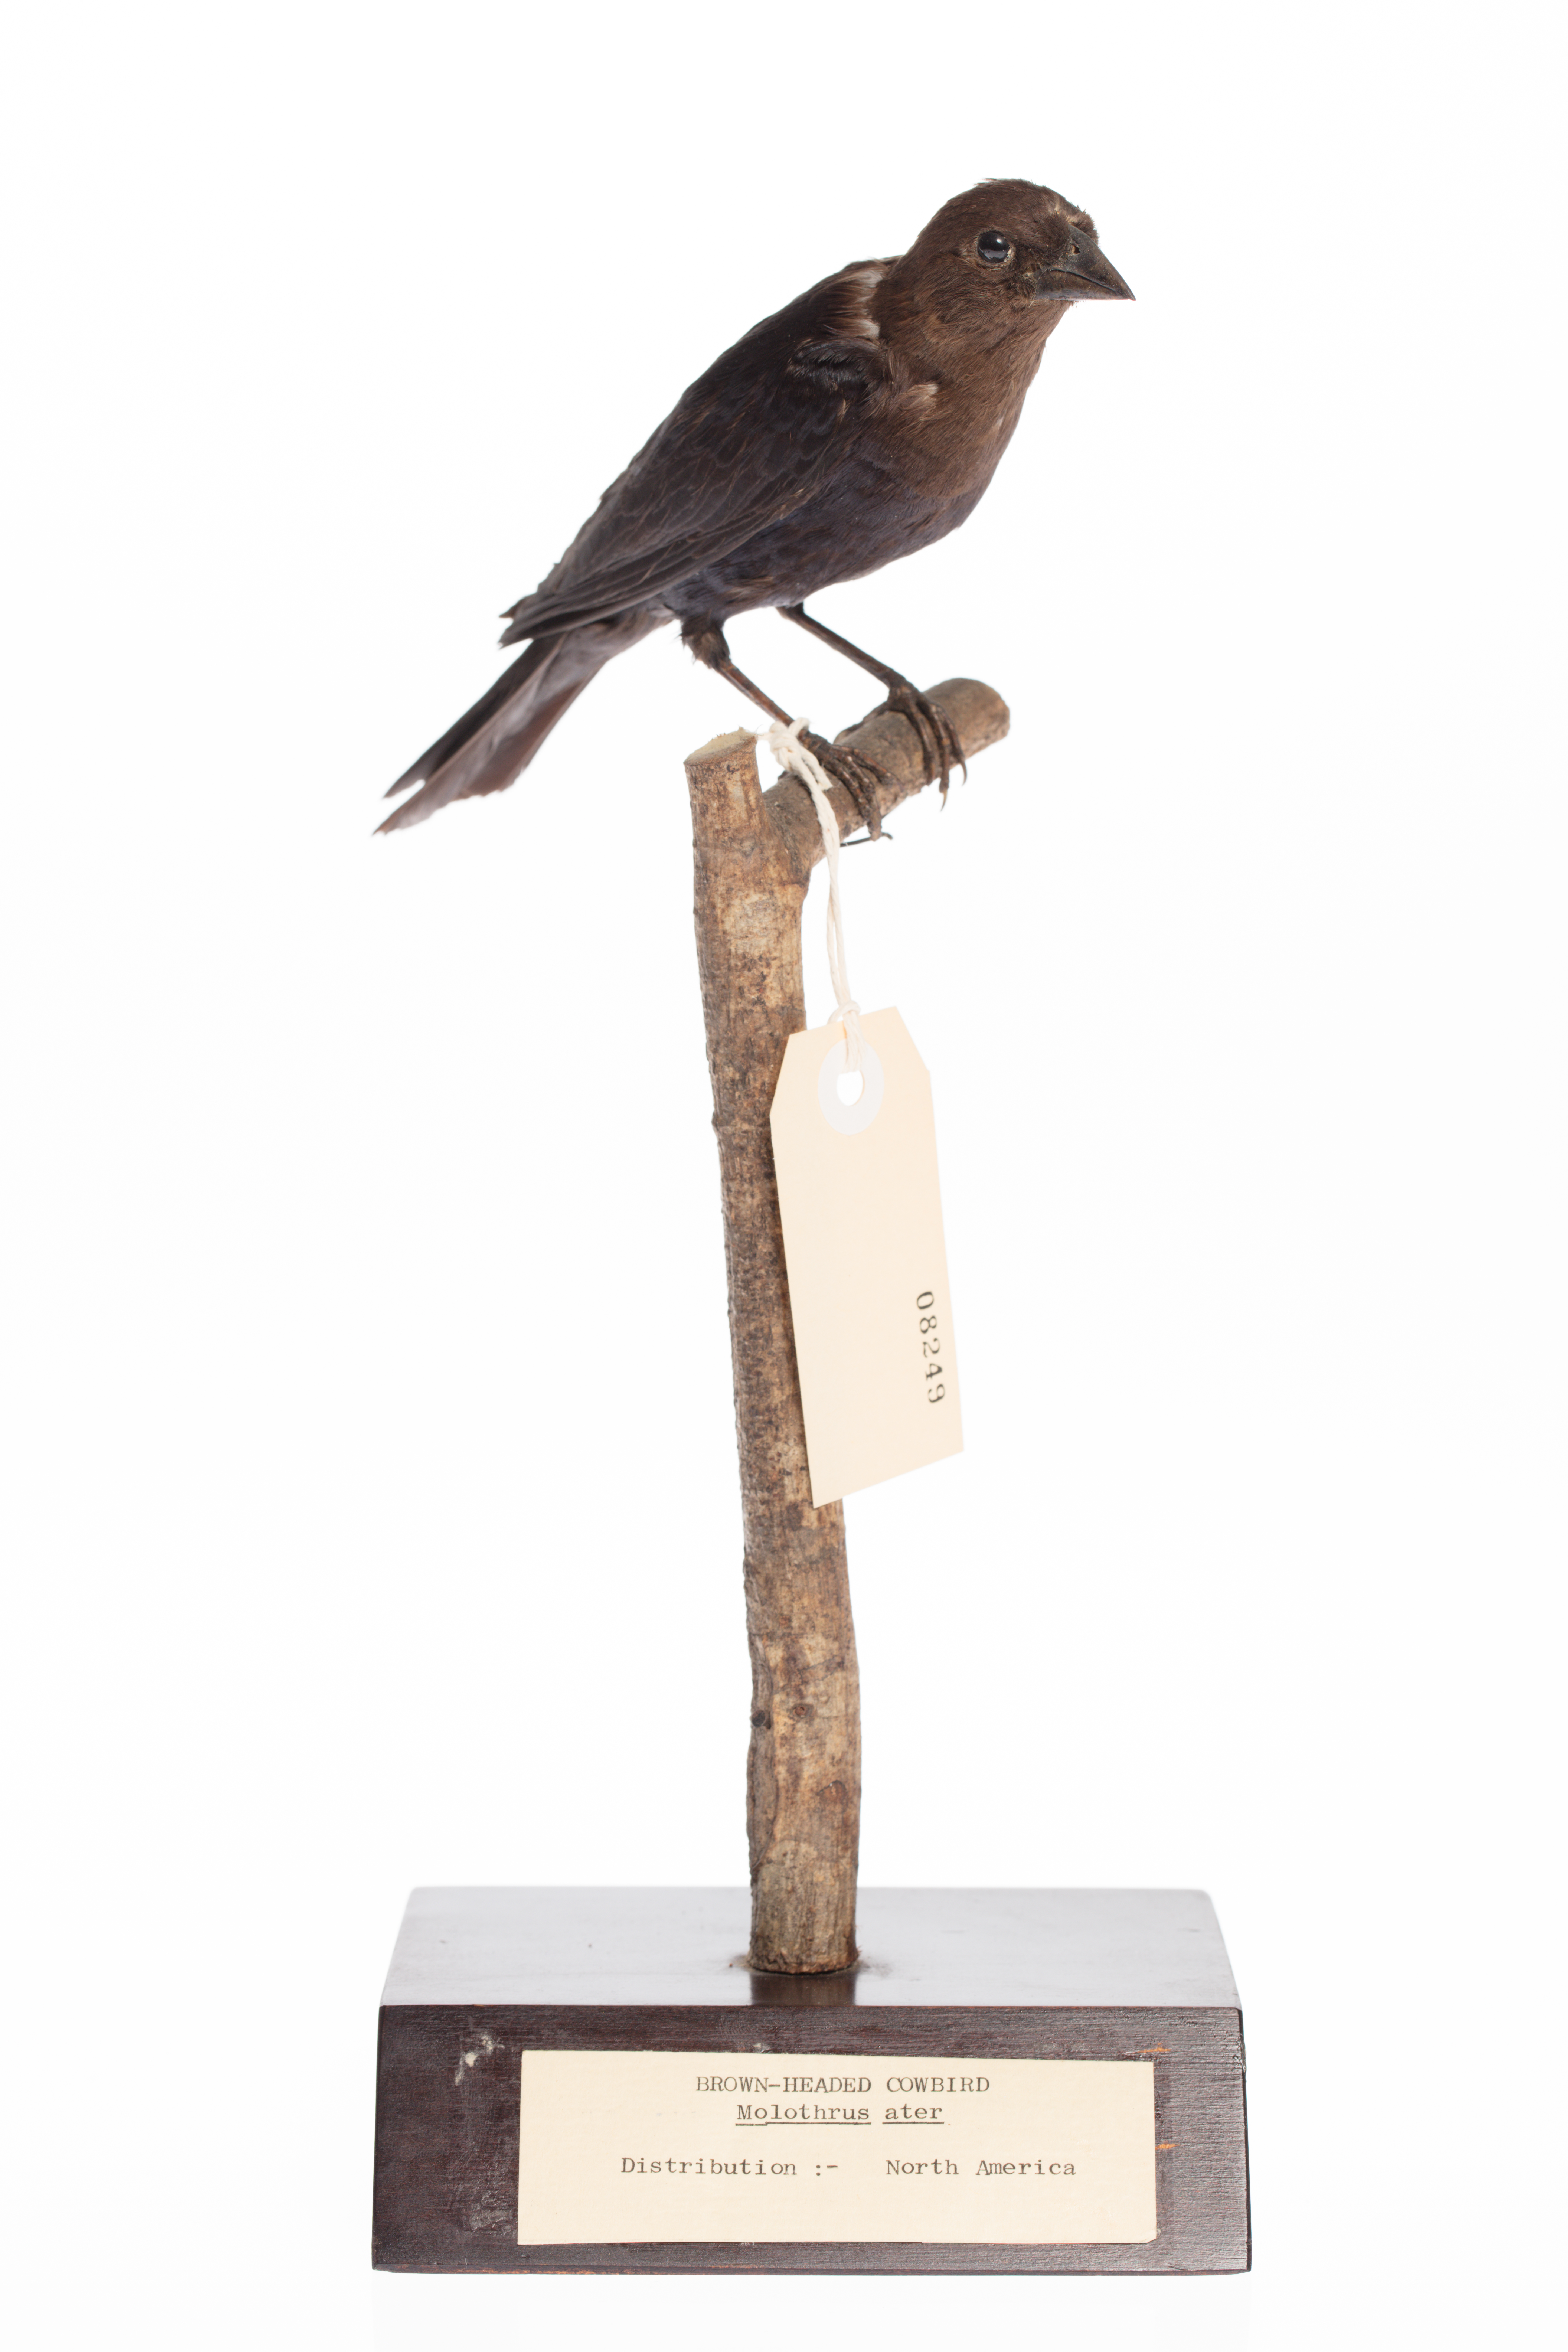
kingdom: Animalia
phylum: Chordata
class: Aves
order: Passeriformes
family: Icteridae
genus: Molothrus
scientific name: Molothrus ater
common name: Brown-headed cowbird
